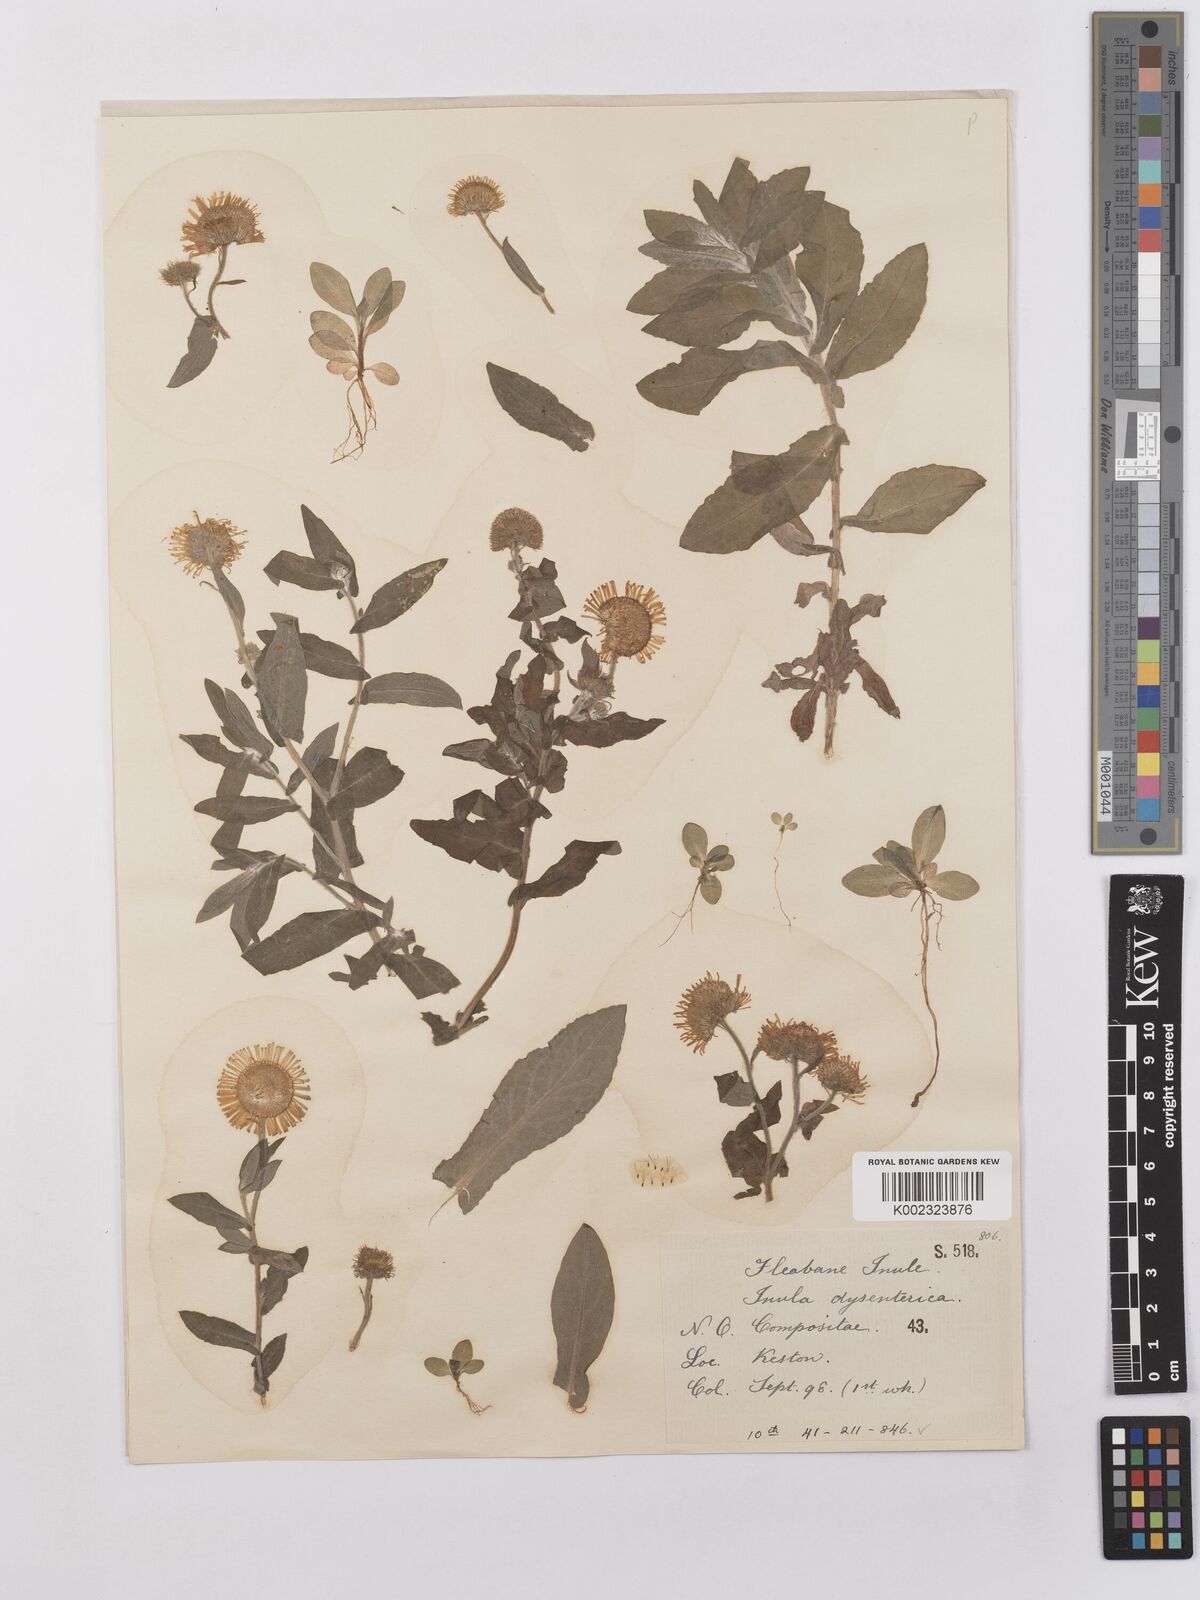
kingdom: Plantae
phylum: Tracheophyta
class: Magnoliopsida
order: Asterales
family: Asteraceae
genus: Pulicaria
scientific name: Pulicaria dysenterica
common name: Common fleabane
